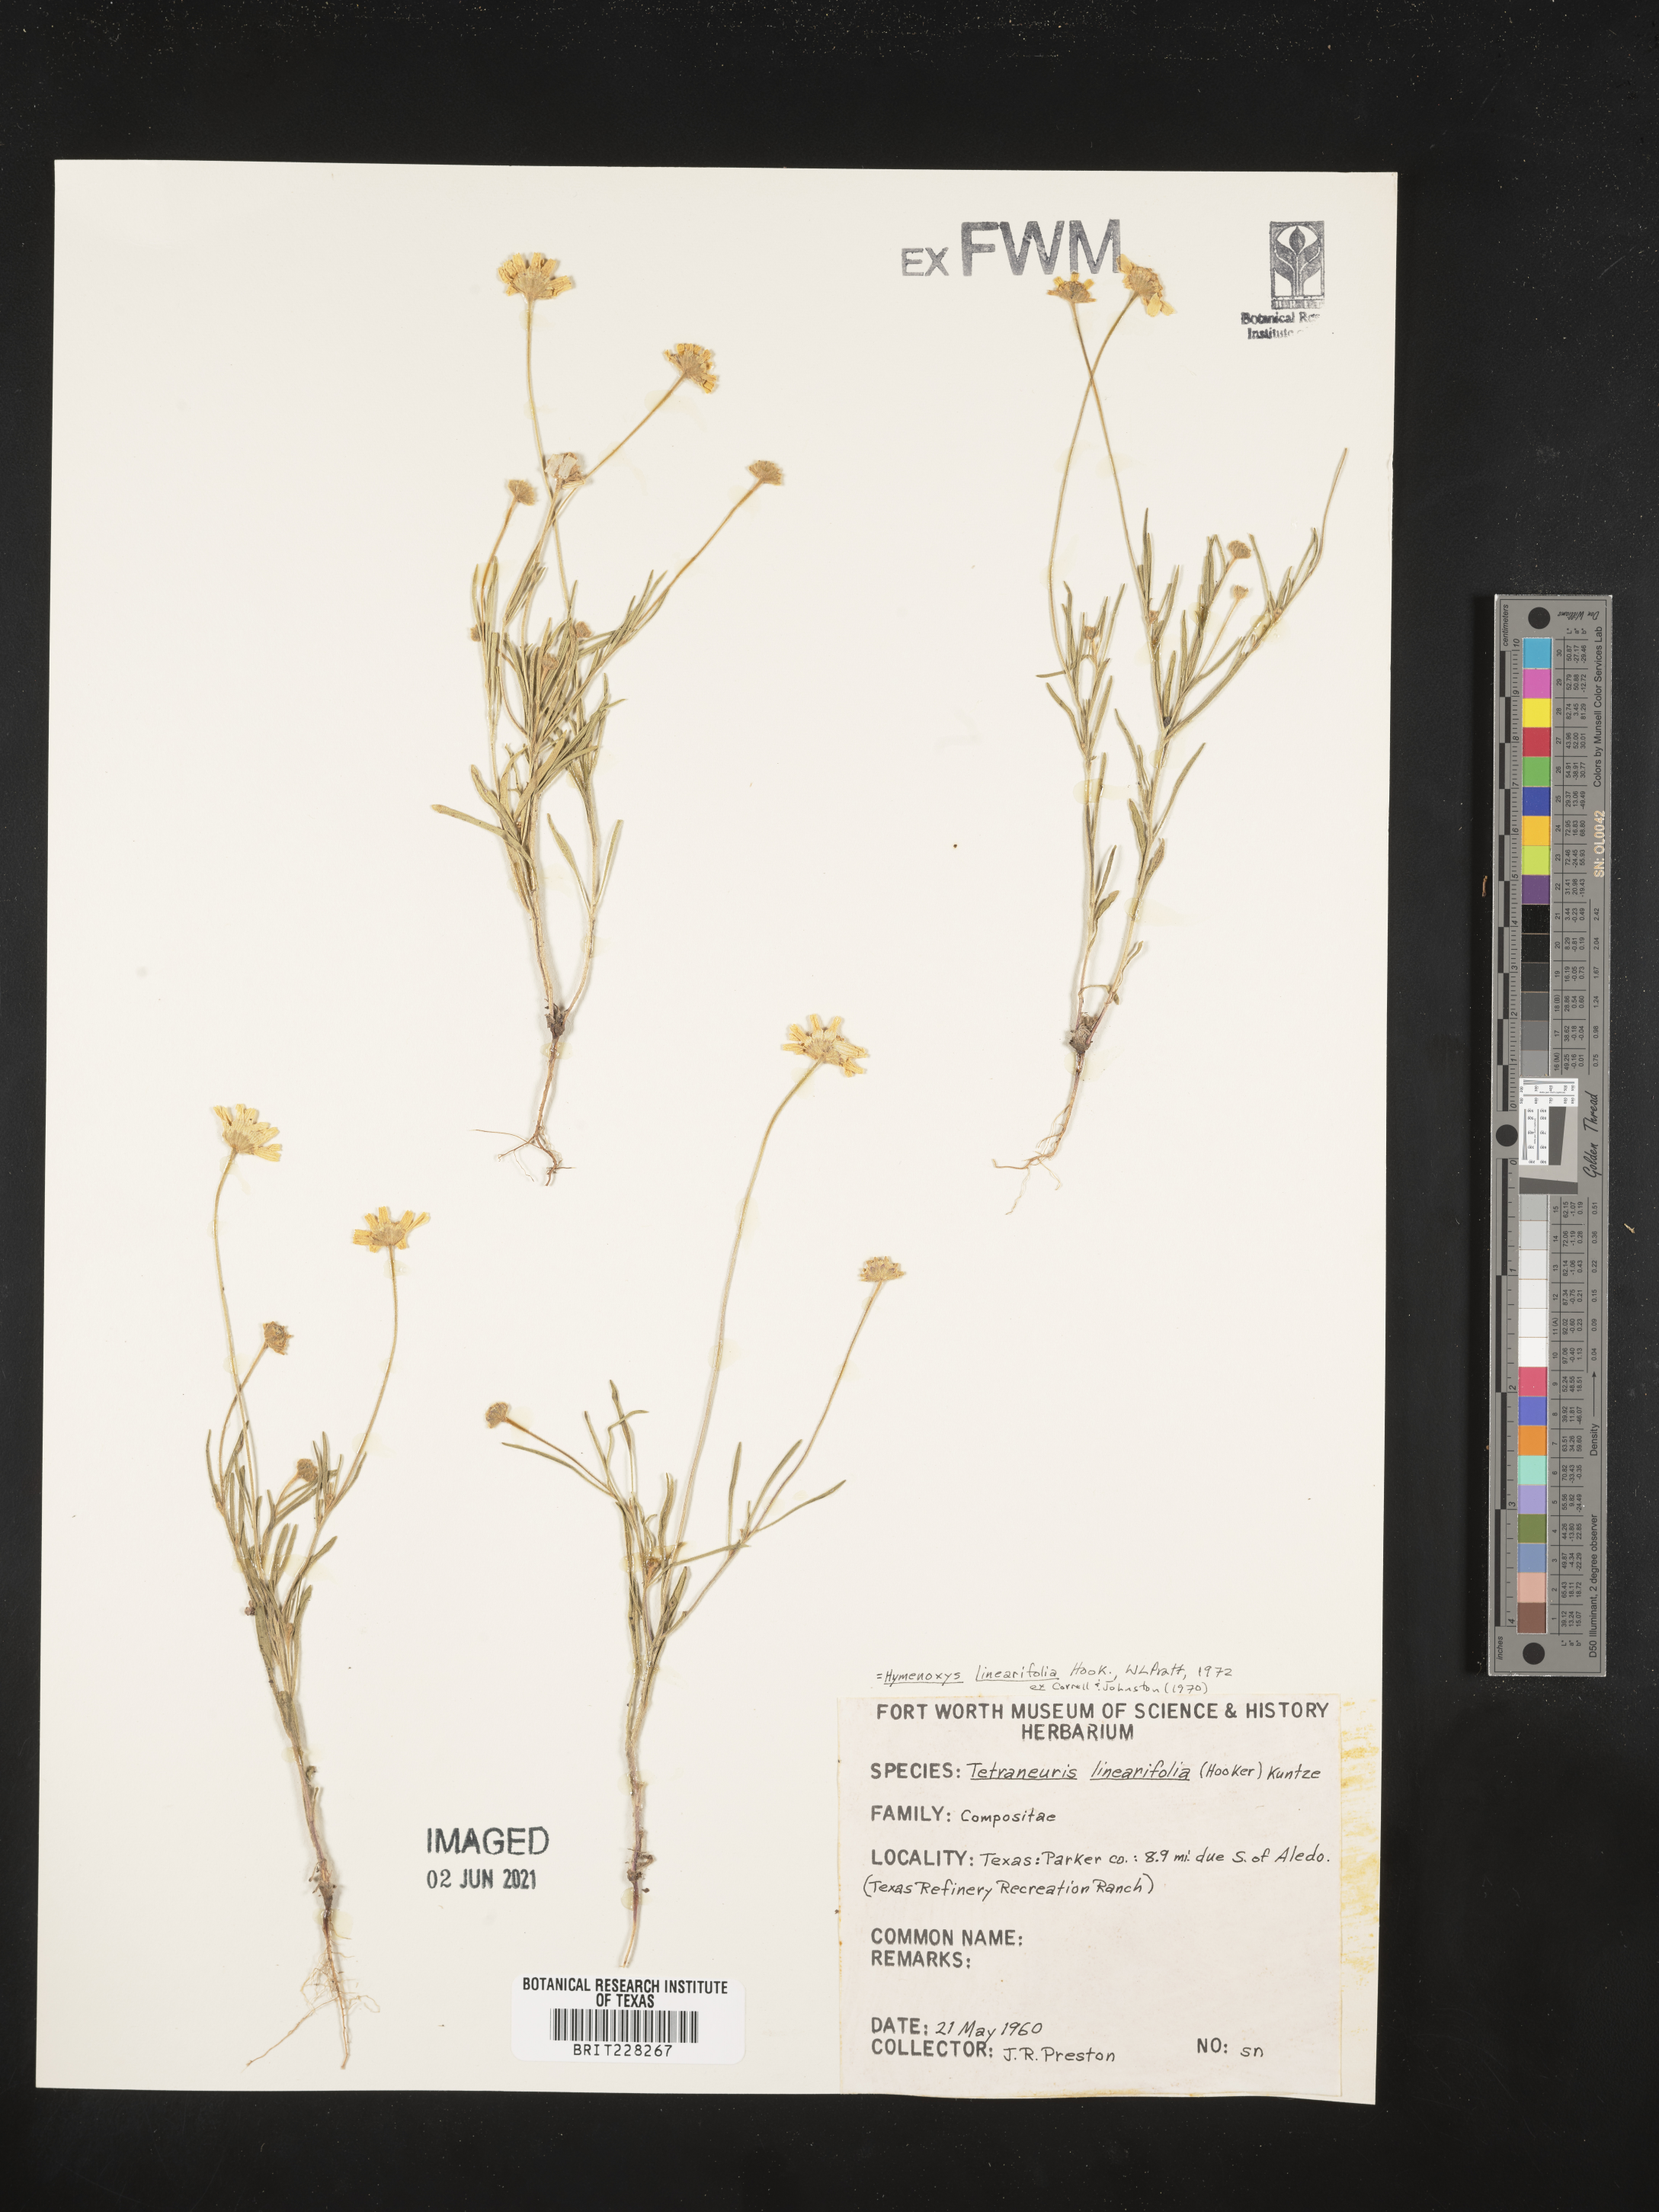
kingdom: Plantae
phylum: Tracheophyta
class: Magnoliopsida
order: Asterales
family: Asteraceae
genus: Tetraneuris
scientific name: Tetraneuris linearifolia
